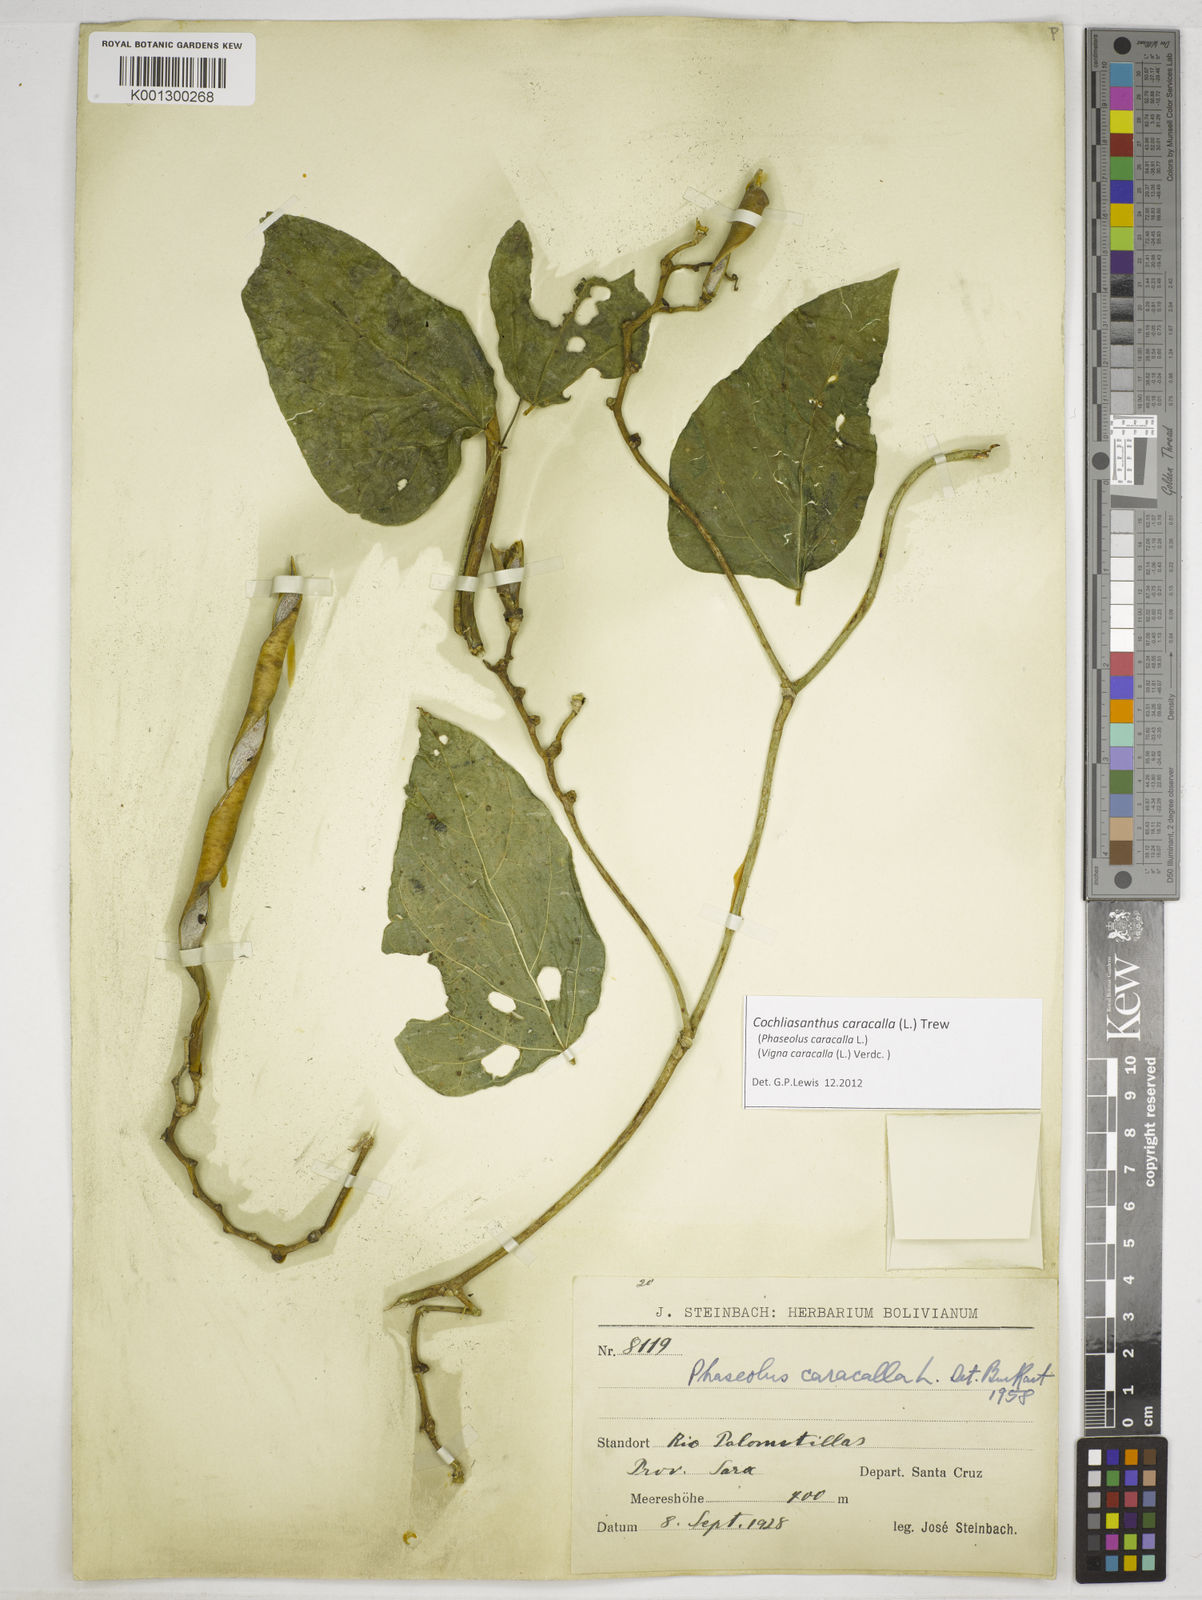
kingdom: Plantae
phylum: Tracheophyta
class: Magnoliopsida
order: Fabales
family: Fabaceae
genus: Cochliasanthus
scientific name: Cochliasanthus caracalla
